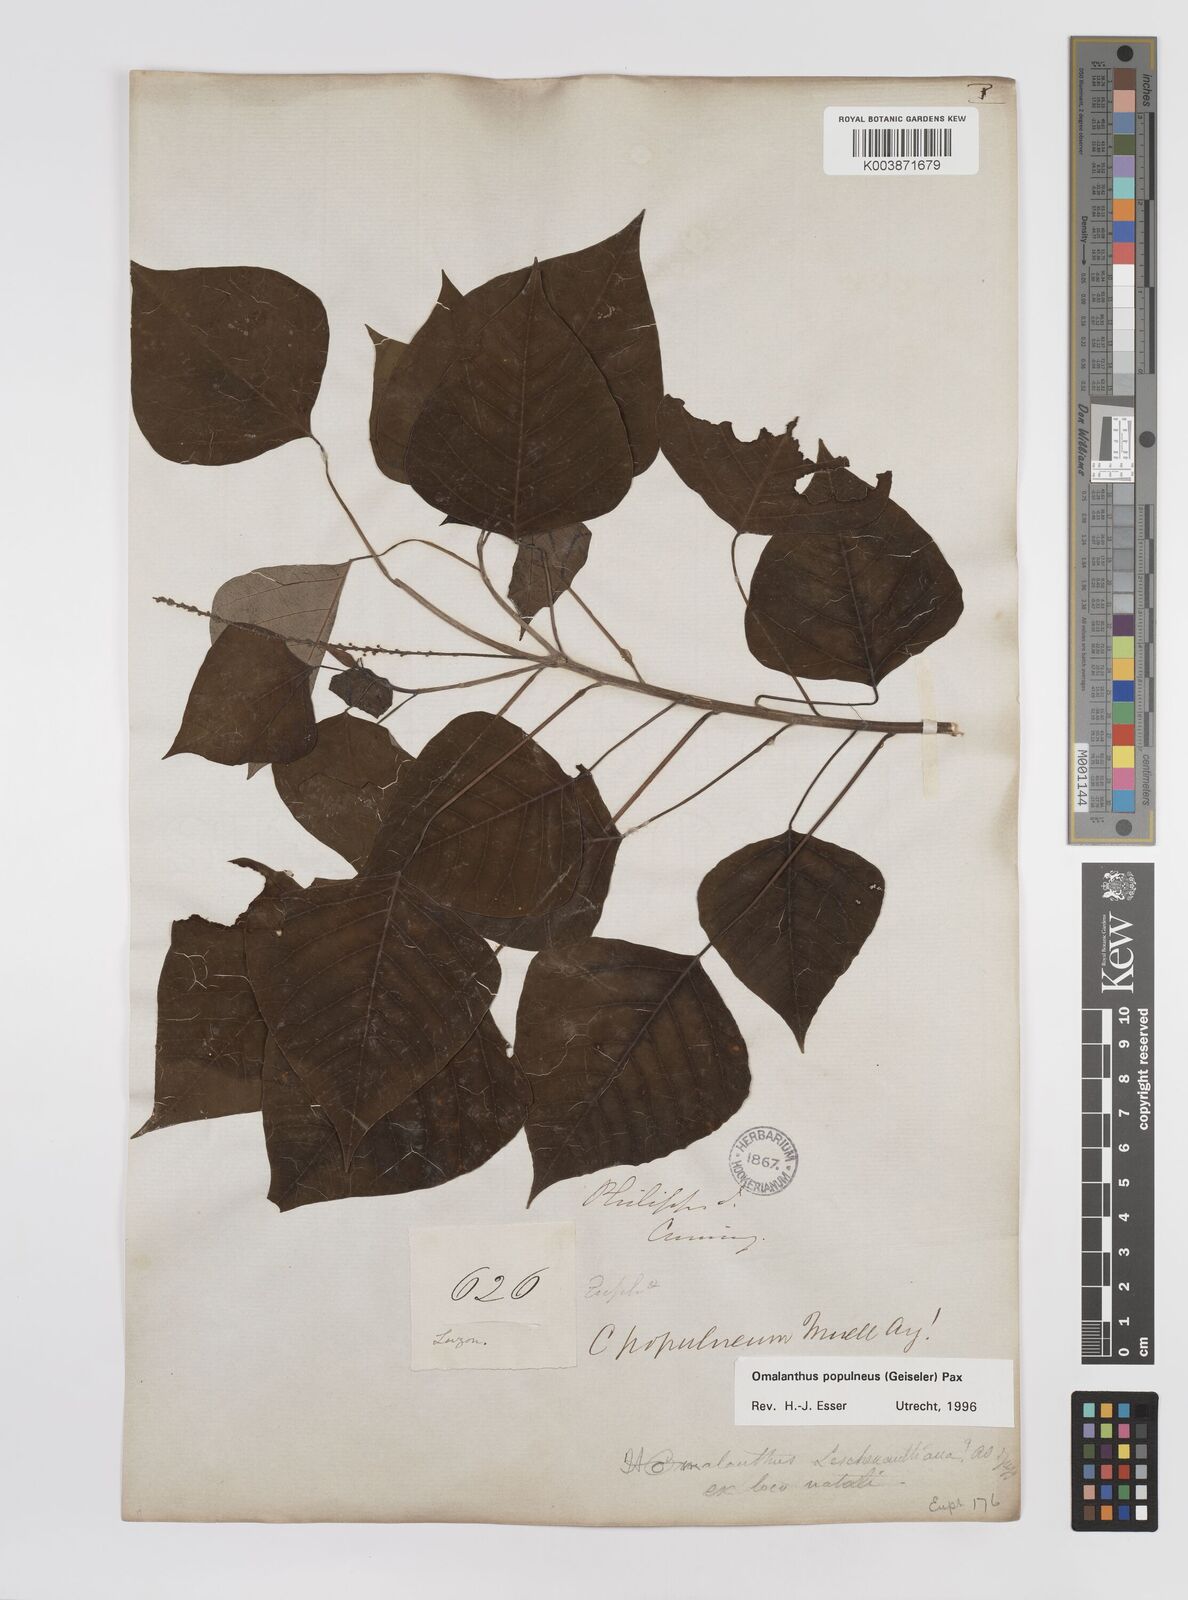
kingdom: Plantae
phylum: Tracheophyta
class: Magnoliopsida
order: Malpighiales
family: Euphorbiaceae
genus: Homalanthus
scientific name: Homalanthus populneus
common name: Spurge
